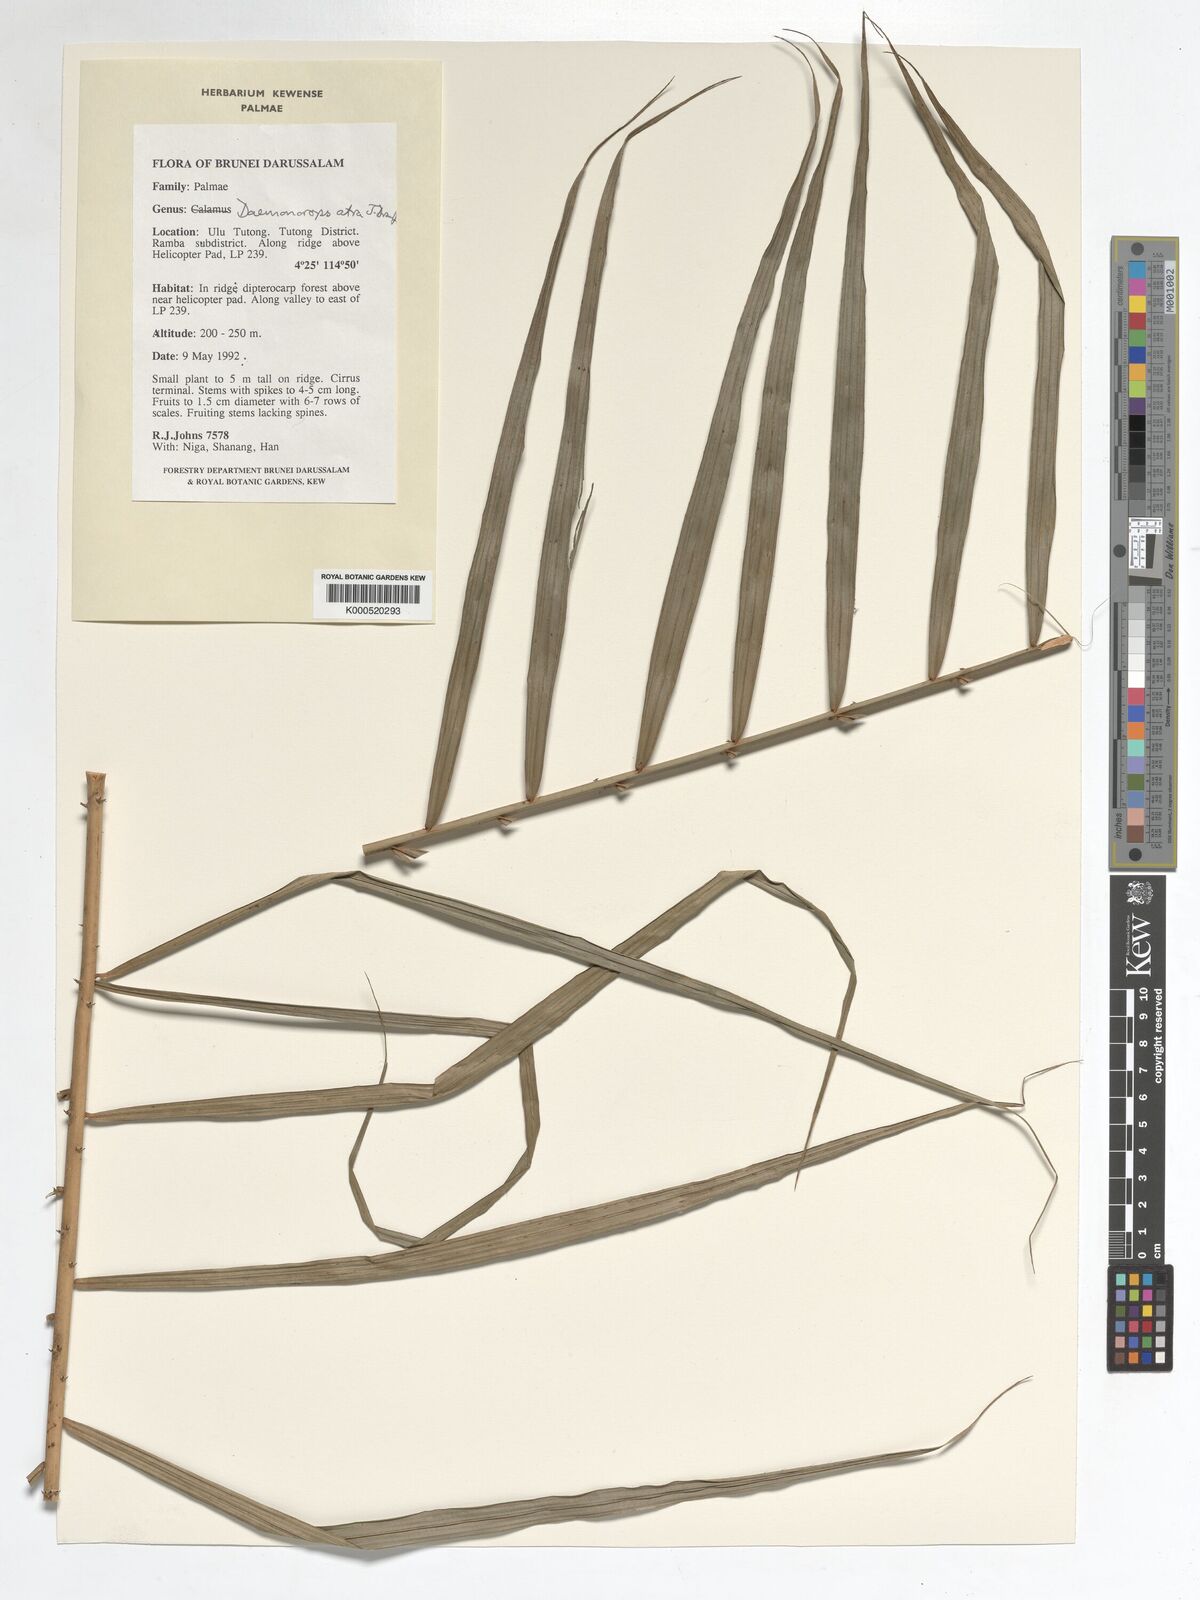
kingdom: Plantae
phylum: Tracheophyta
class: Liliopsida
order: Arecales
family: Arecaceae
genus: Calamus
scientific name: Calamus ater
